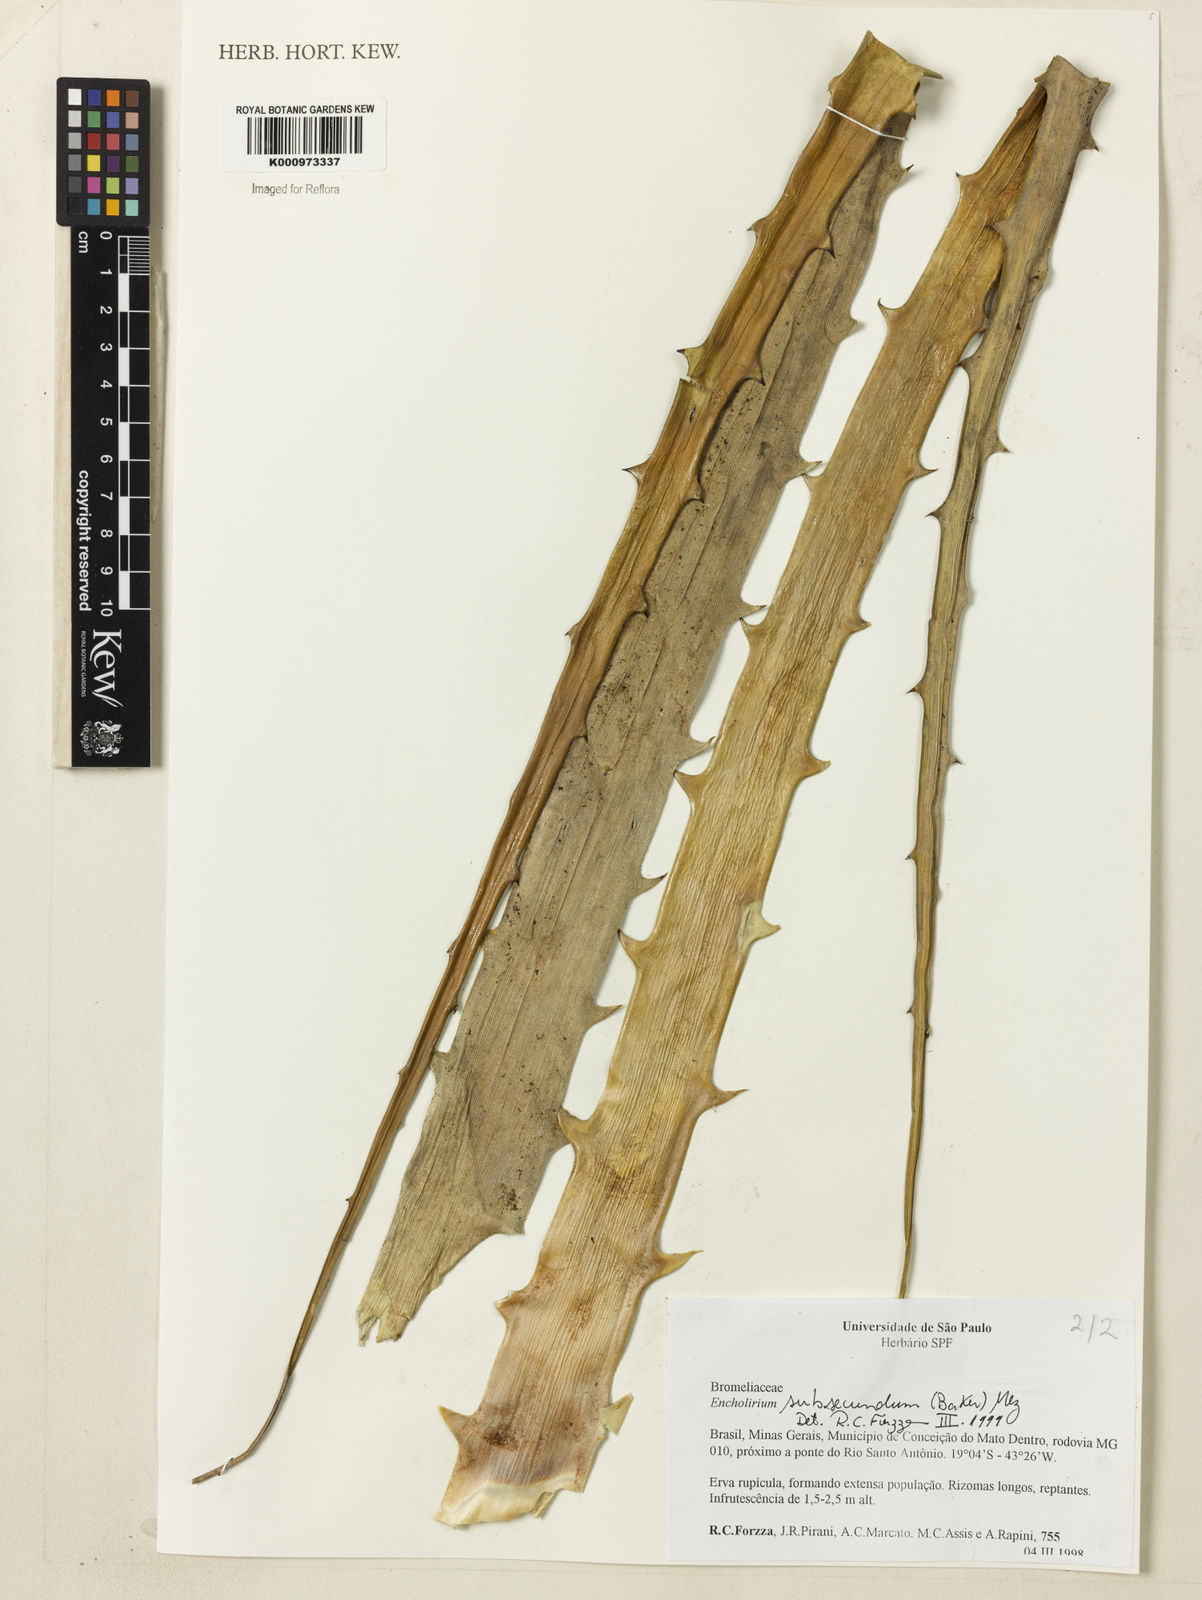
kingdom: Plantae
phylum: Tracheophyta
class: Liliopsida
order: Poales
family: Bromeliaceae
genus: Encholirium
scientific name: Encholirium subsecundum
